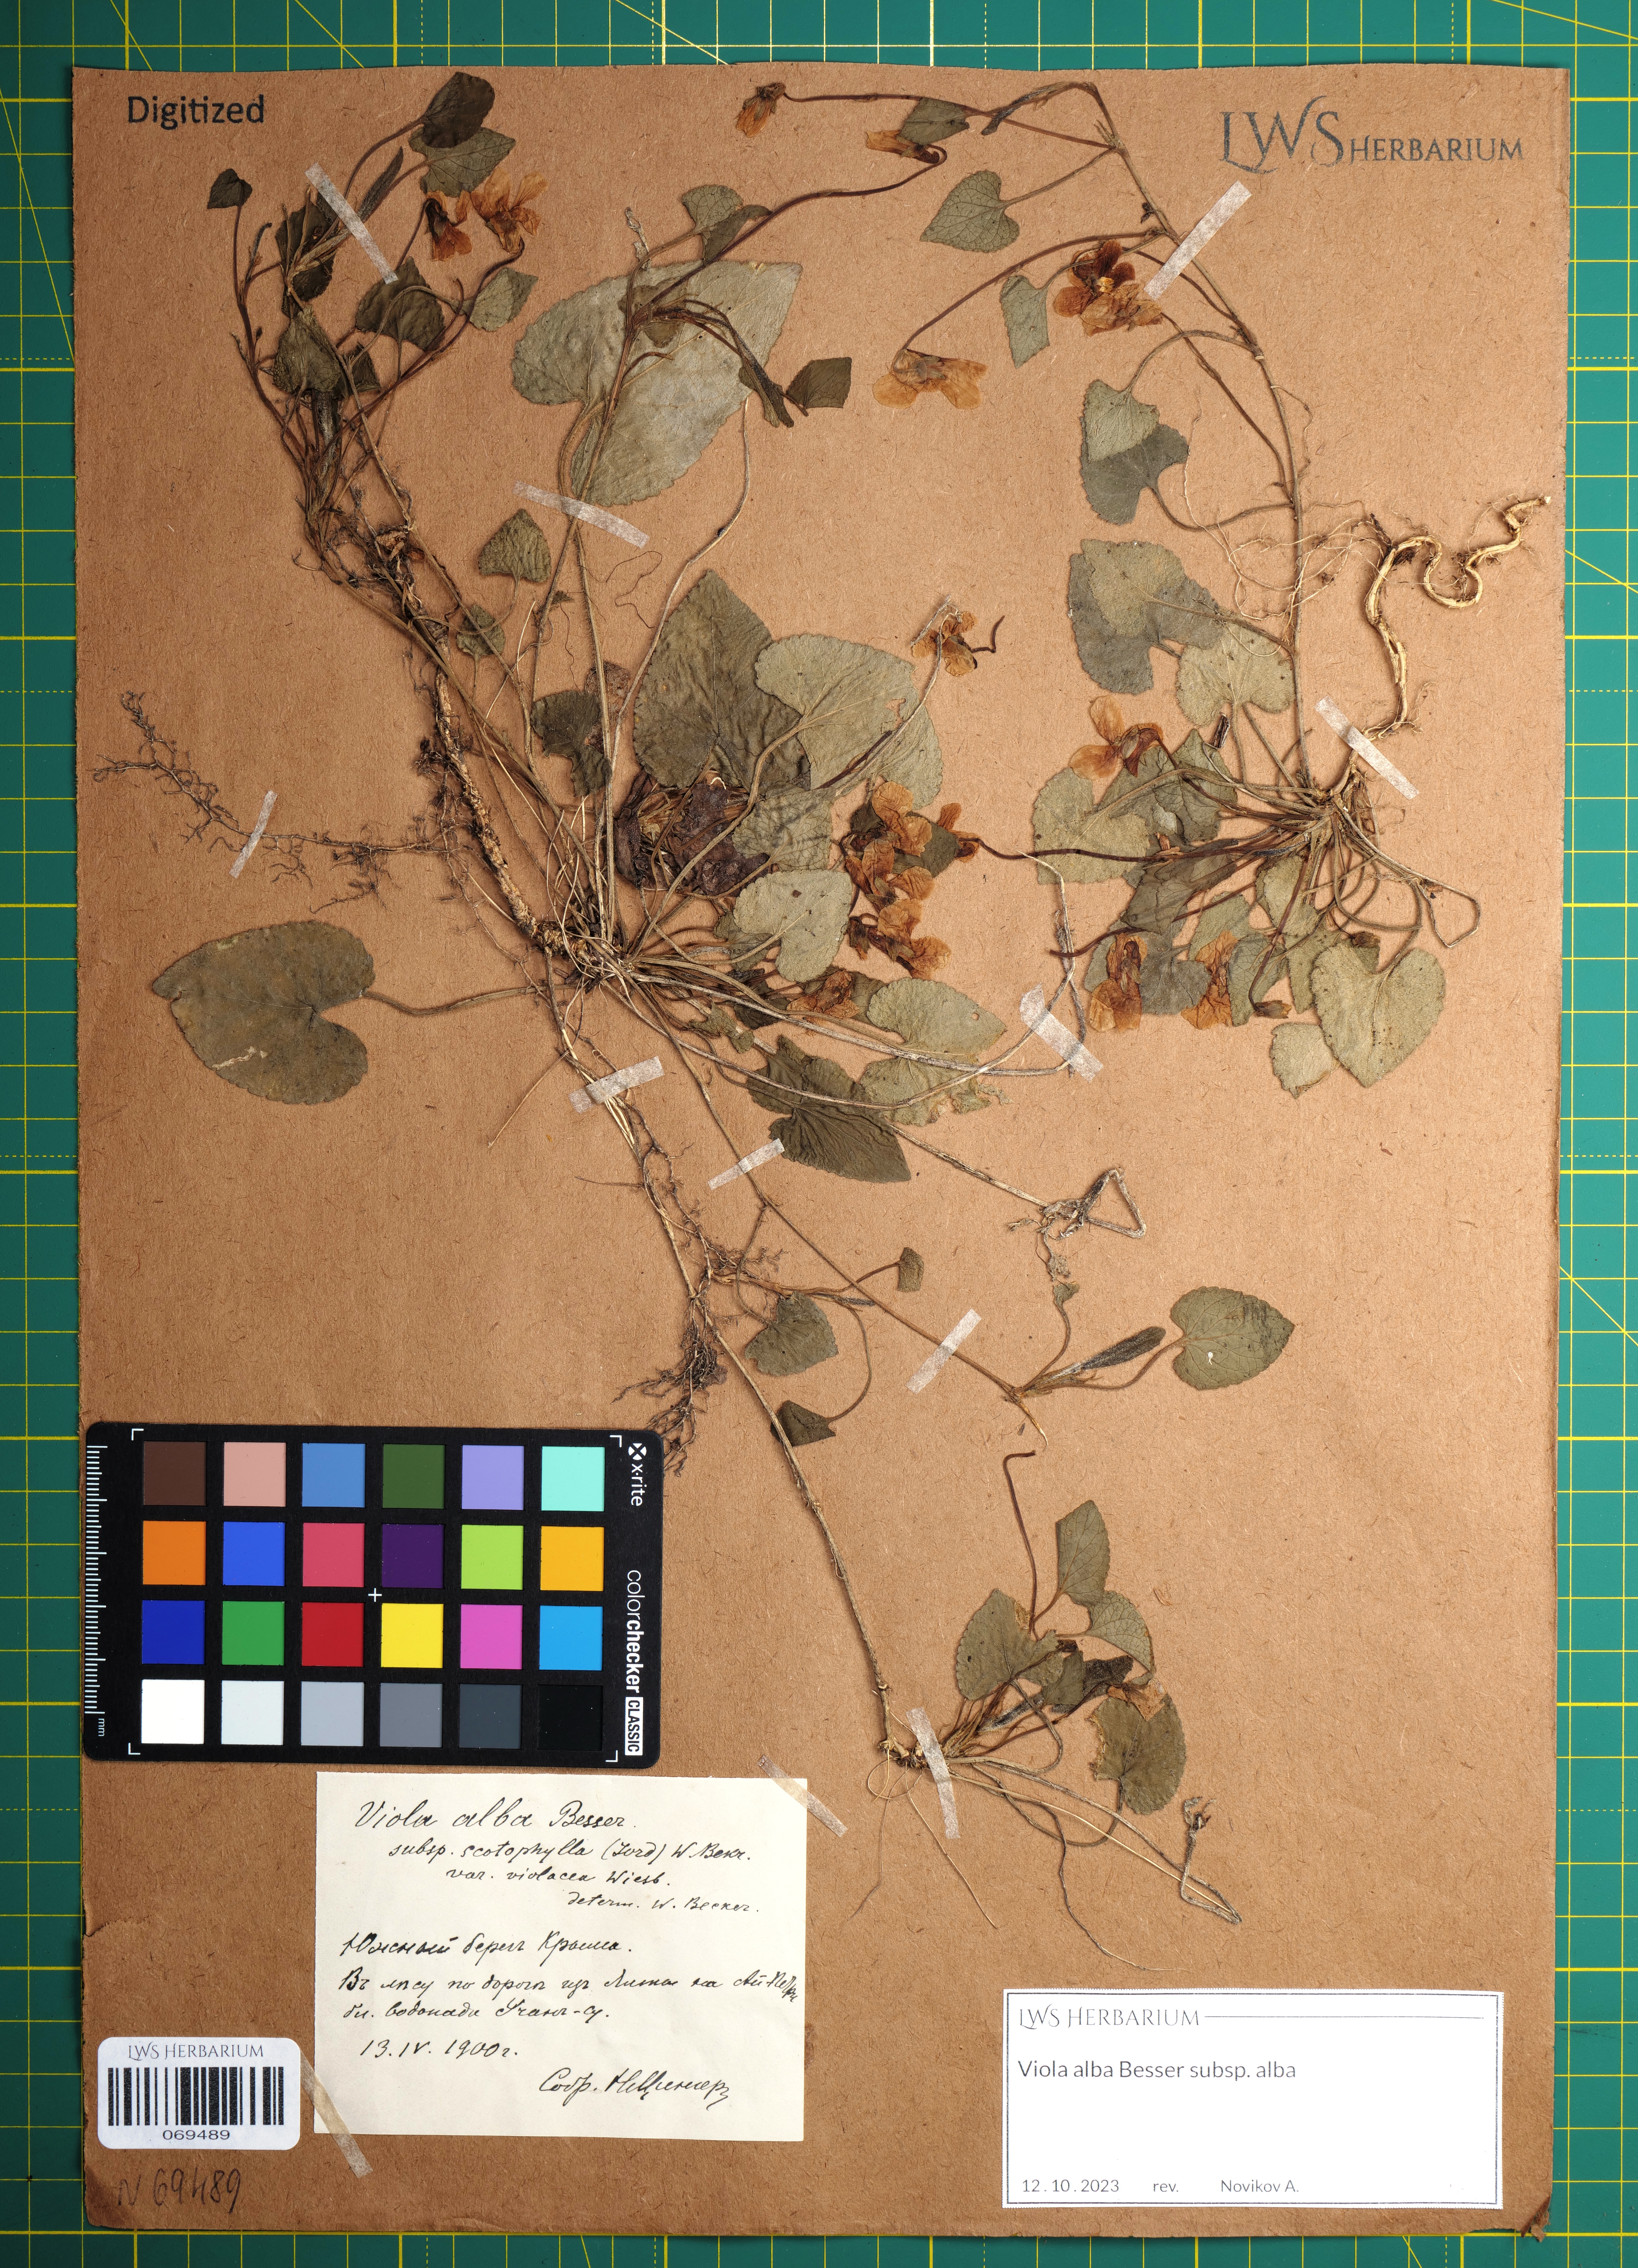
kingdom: Plantae
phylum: Tracheophyta
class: Magnoliopsida
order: Malpighiales
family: Violaceae
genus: Viola
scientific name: Viola alba
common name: White violet
